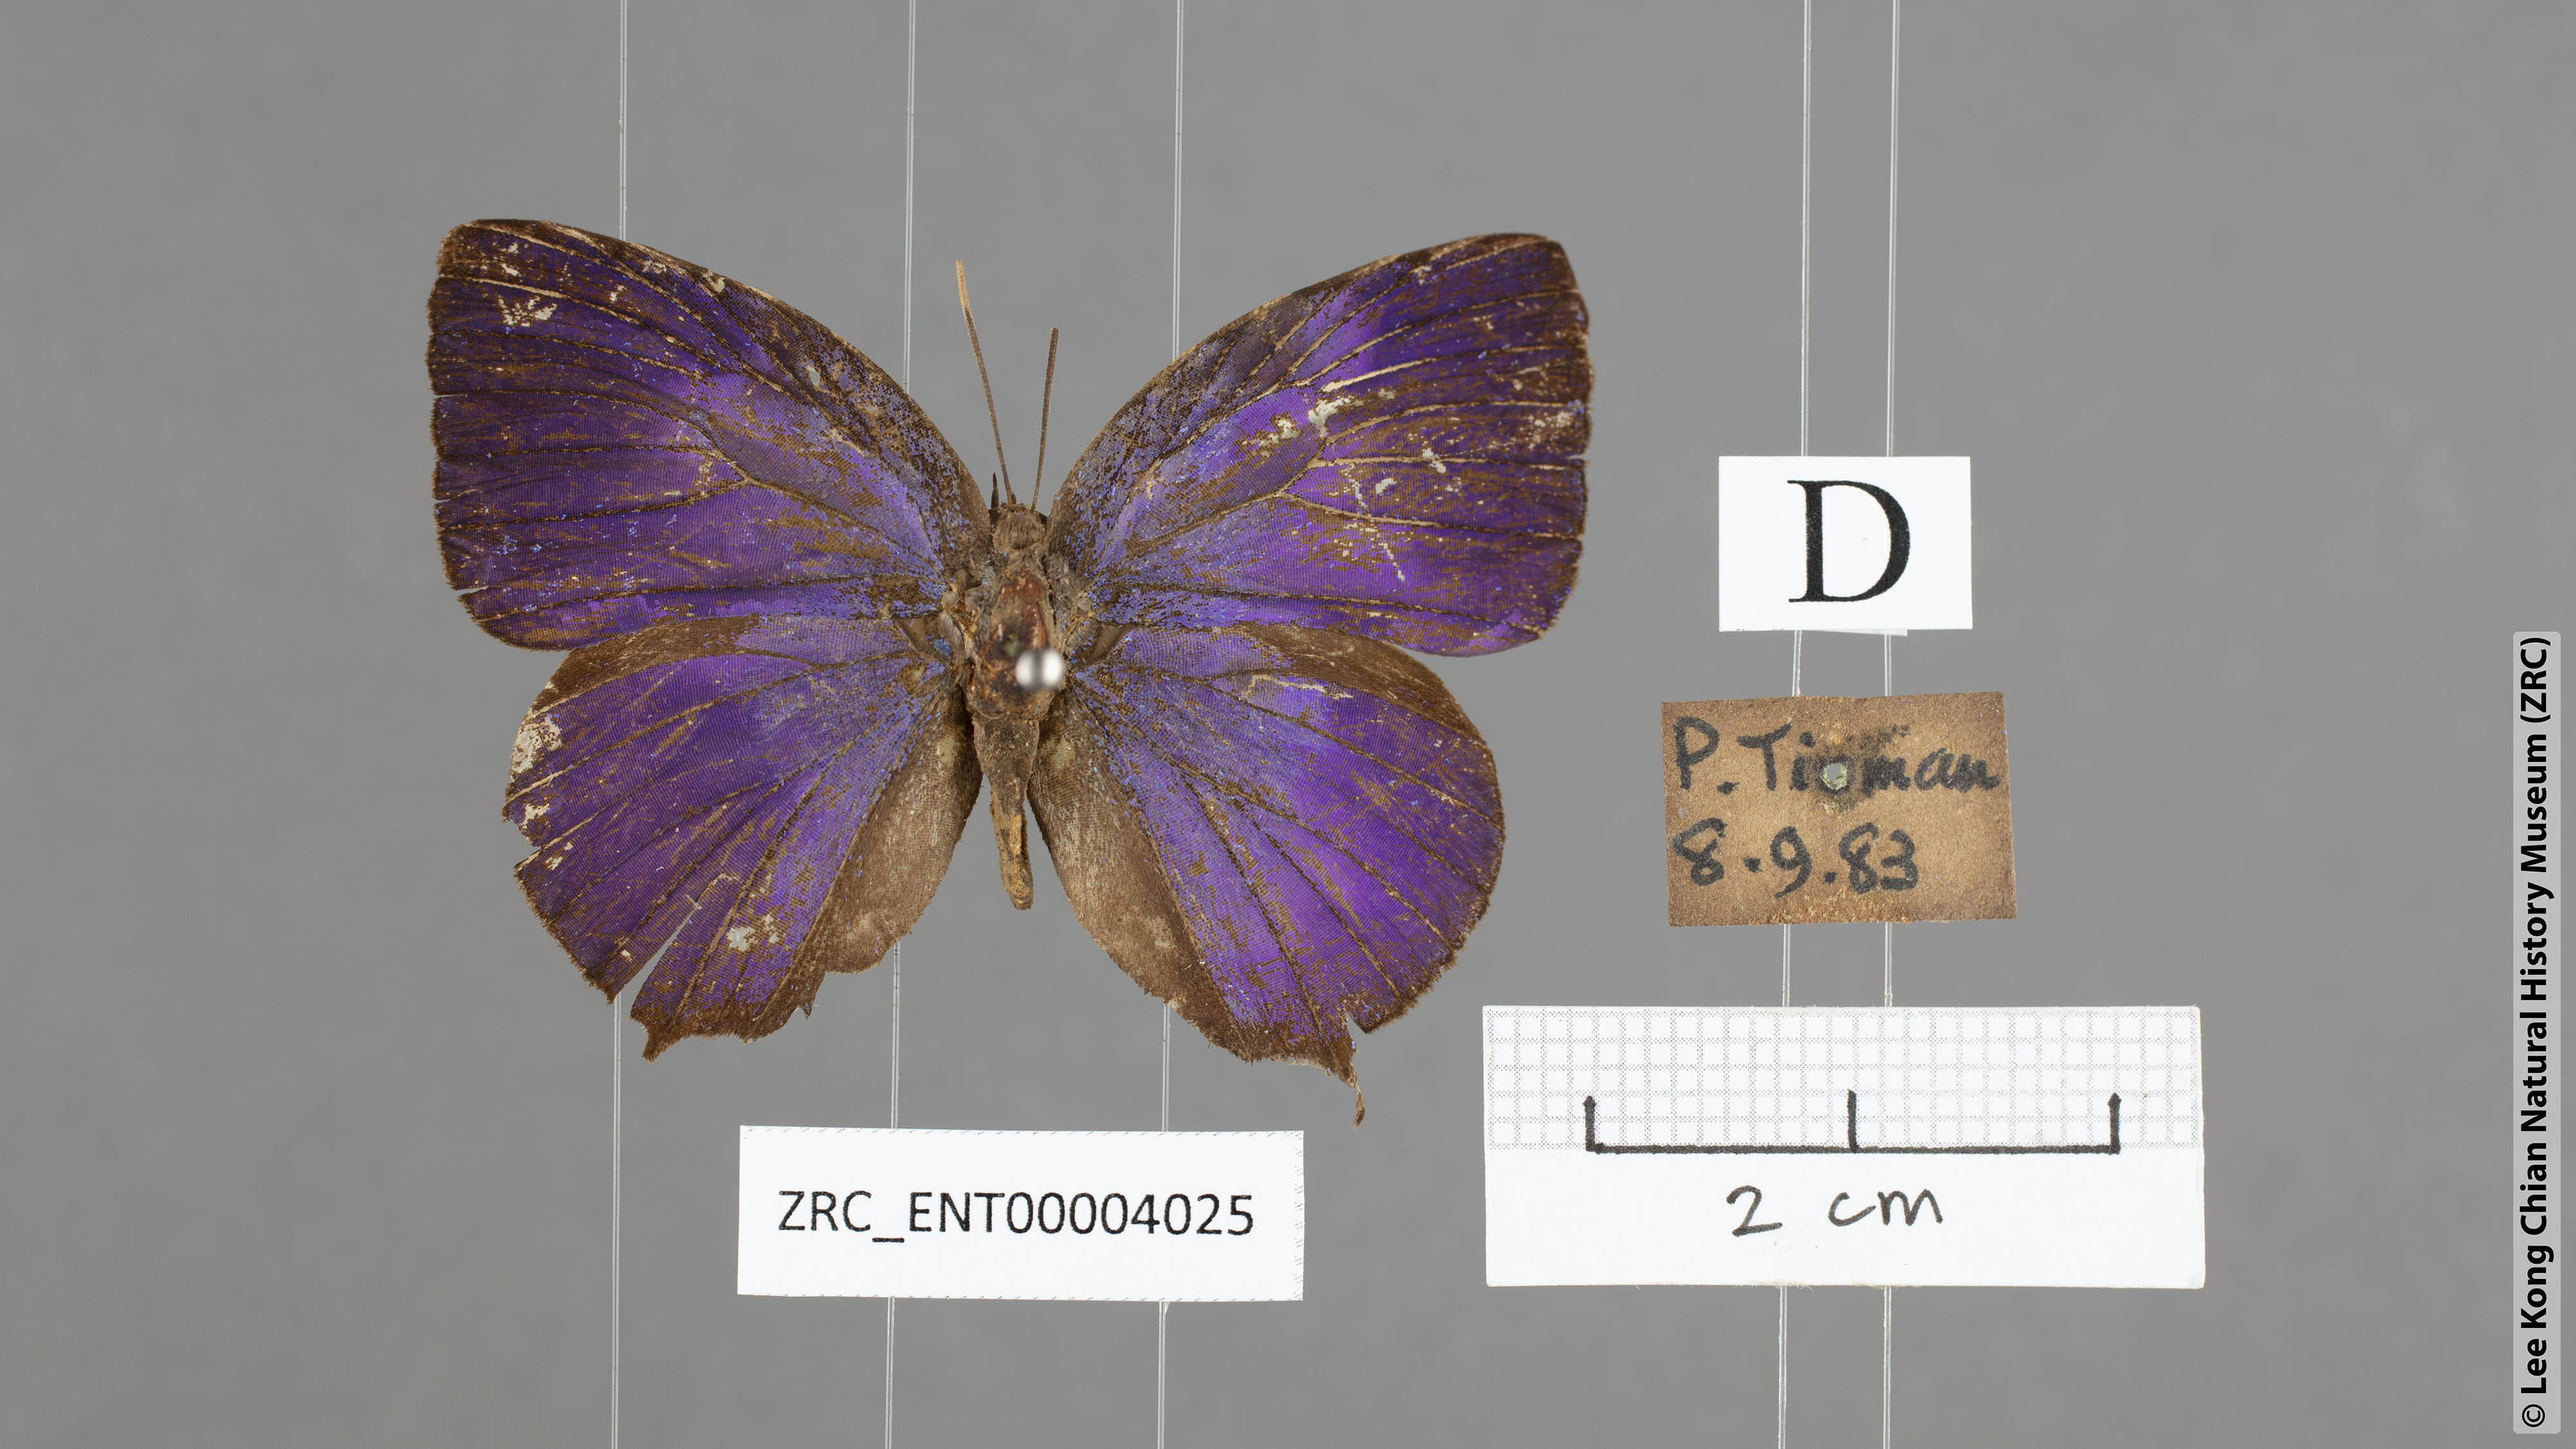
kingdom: Animalia
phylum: Arthropoda
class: Insecta
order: Lepidoptera
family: Lycaenidae
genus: Arhopala
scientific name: Arhopala centaurus
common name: Dull oak-blue
